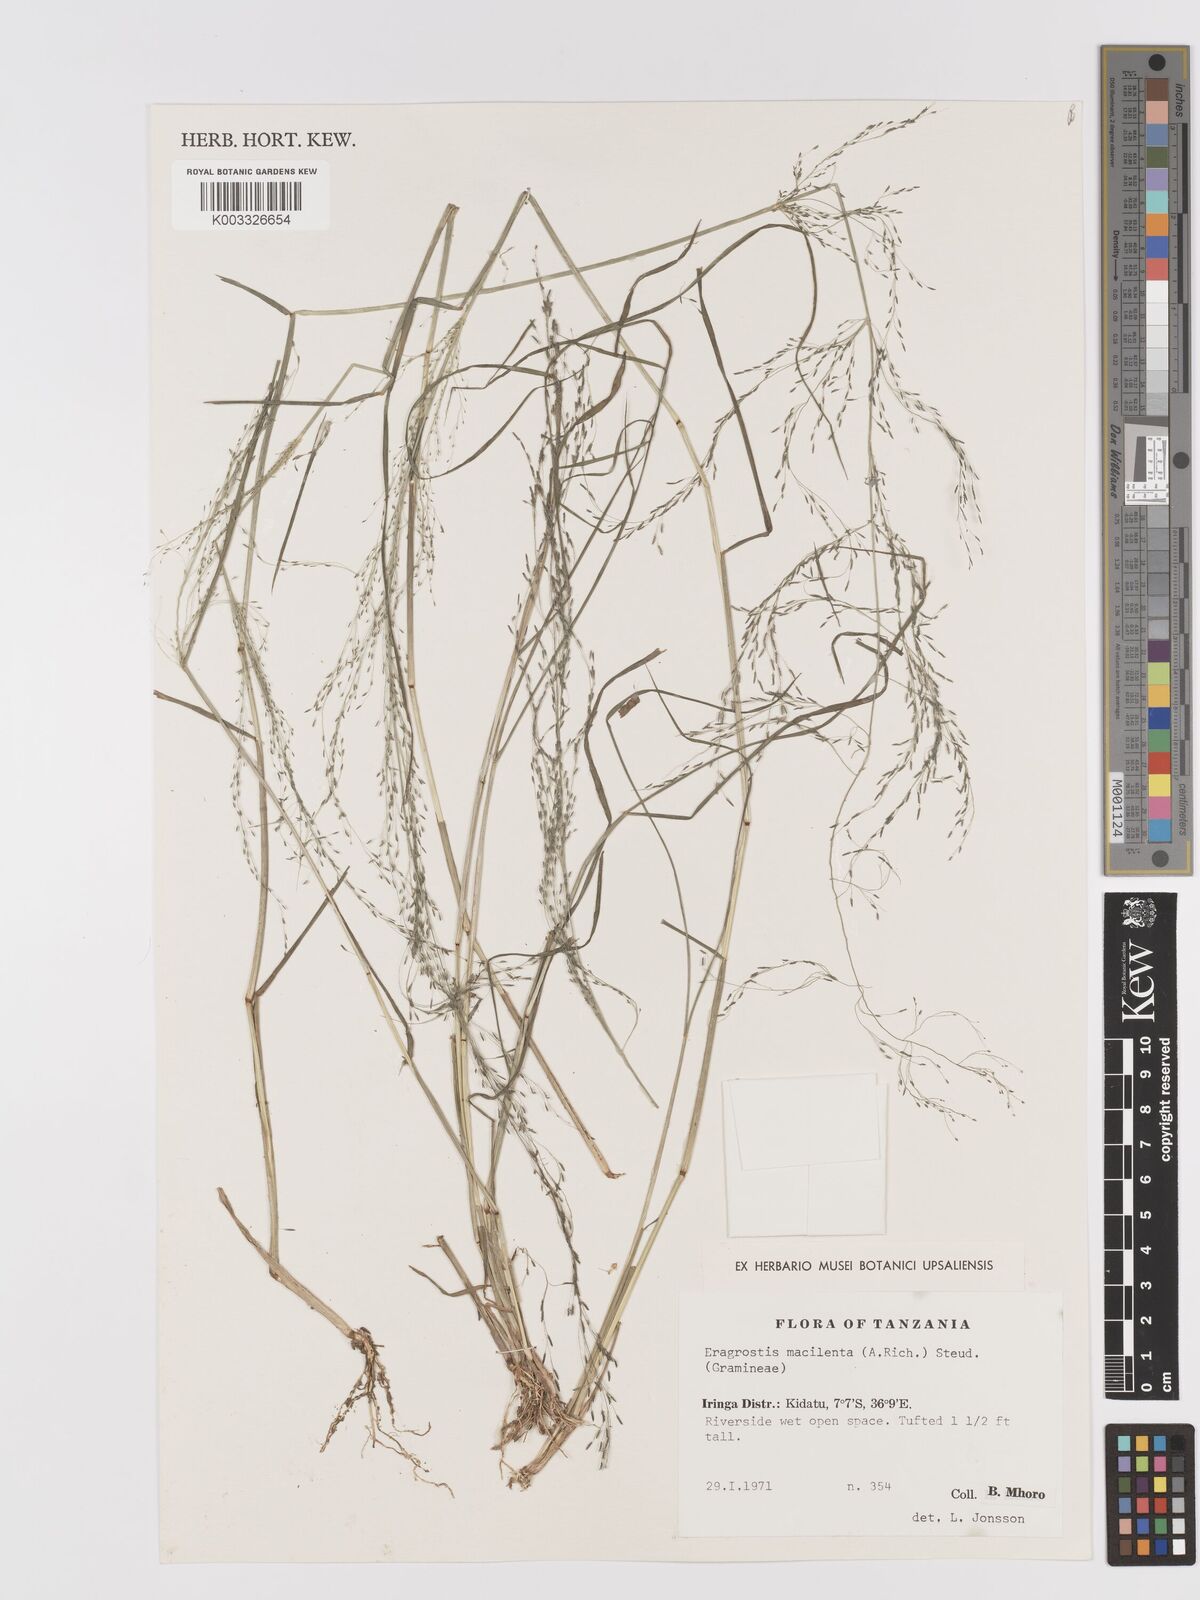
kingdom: Plantae
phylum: Tracheophyta
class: Liliopsida
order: Poales
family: Poaceae
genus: Eragrostis
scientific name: Eragrostis macilenta
